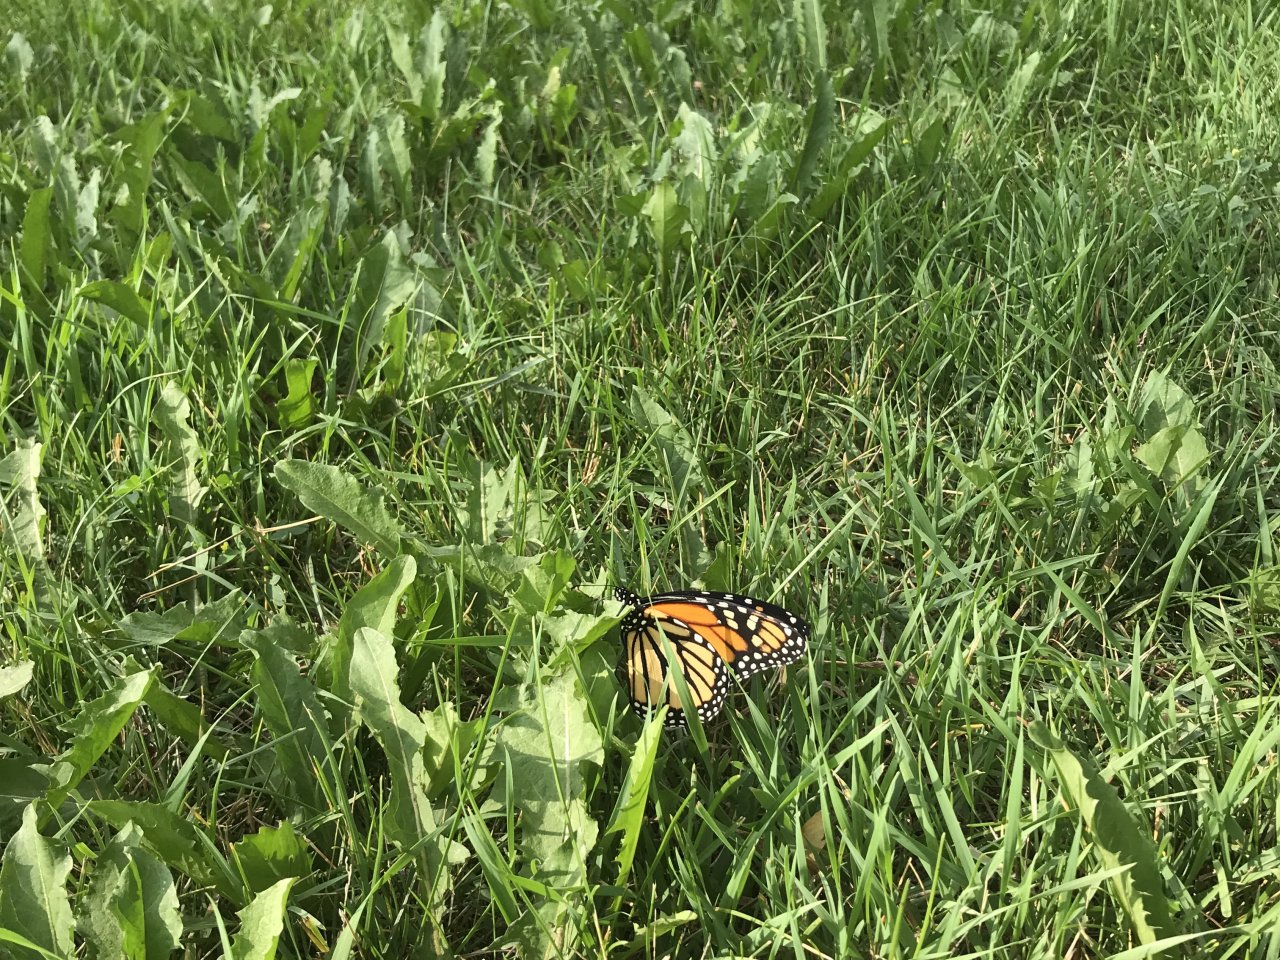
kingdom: Animalia
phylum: Arthropoda
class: Insecta
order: Lepidoptera
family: Nymphalidae
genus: Danaus
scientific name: Danaus plexippus
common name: Monarch
